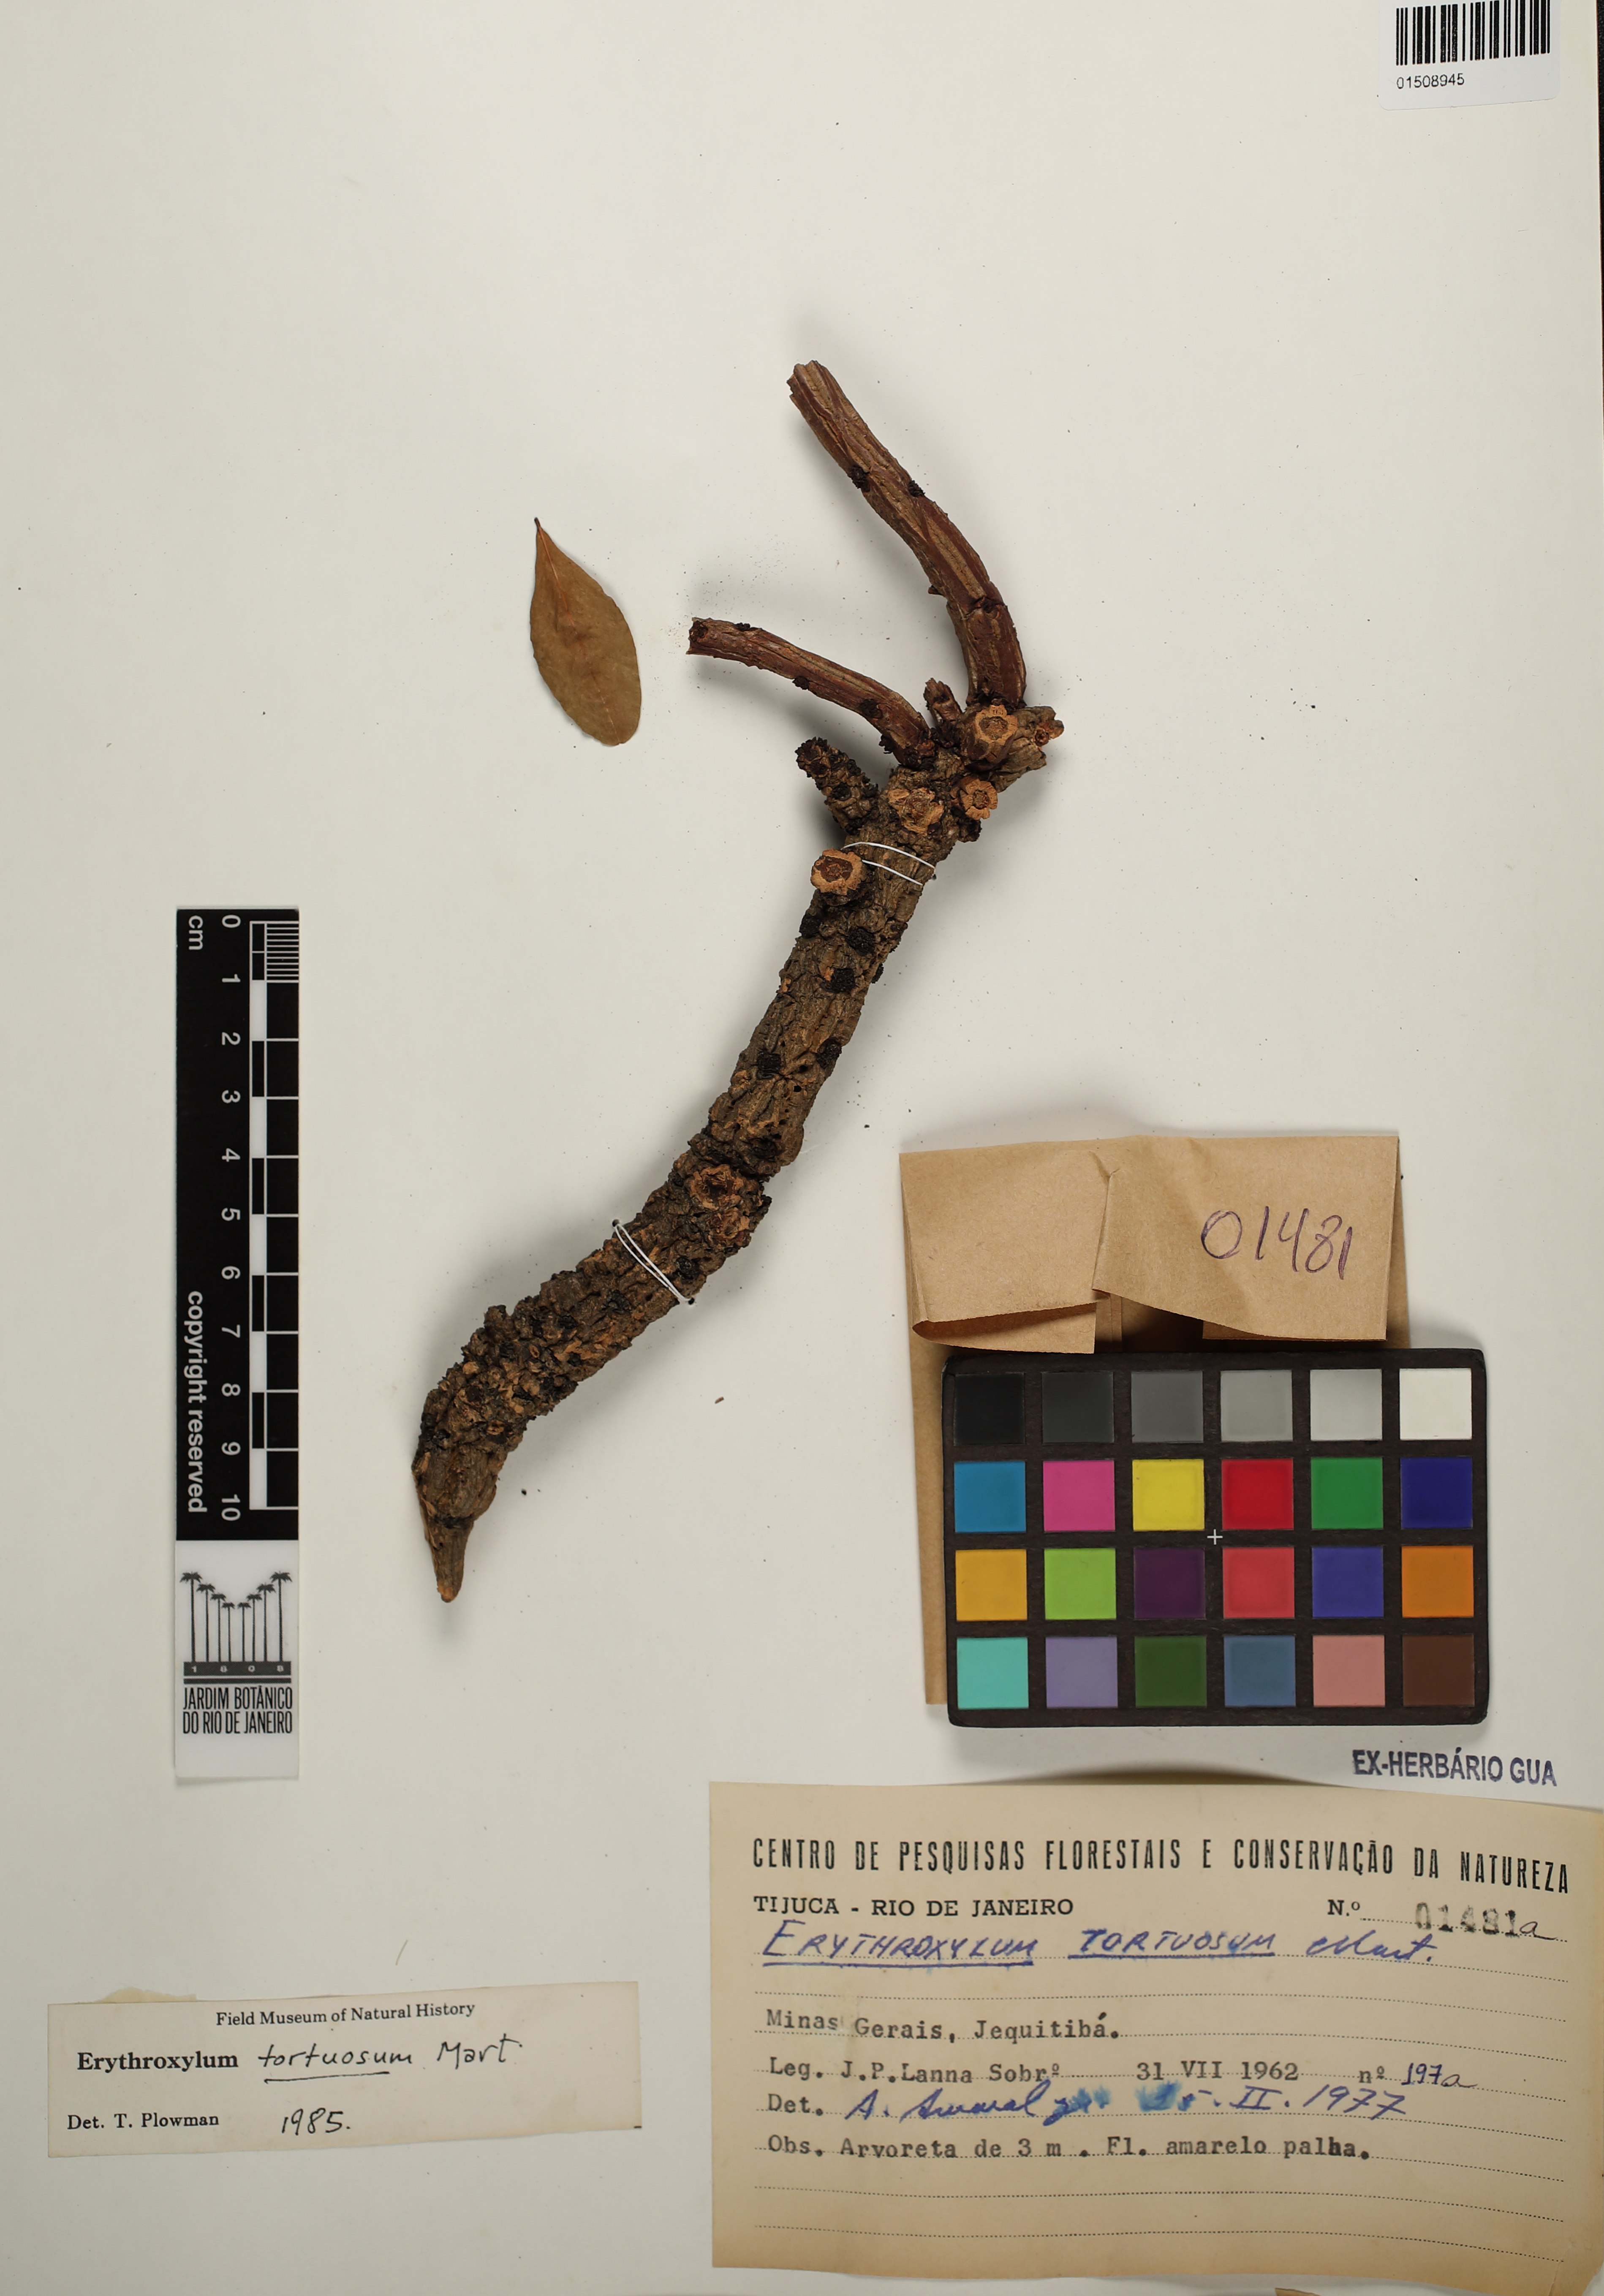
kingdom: Plantae
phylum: Tracheophyta
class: Magnoliopsida
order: Malpighiales
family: Erythroxylaceae
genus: Erythroxylum
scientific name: Erythroxylum tortuosum
